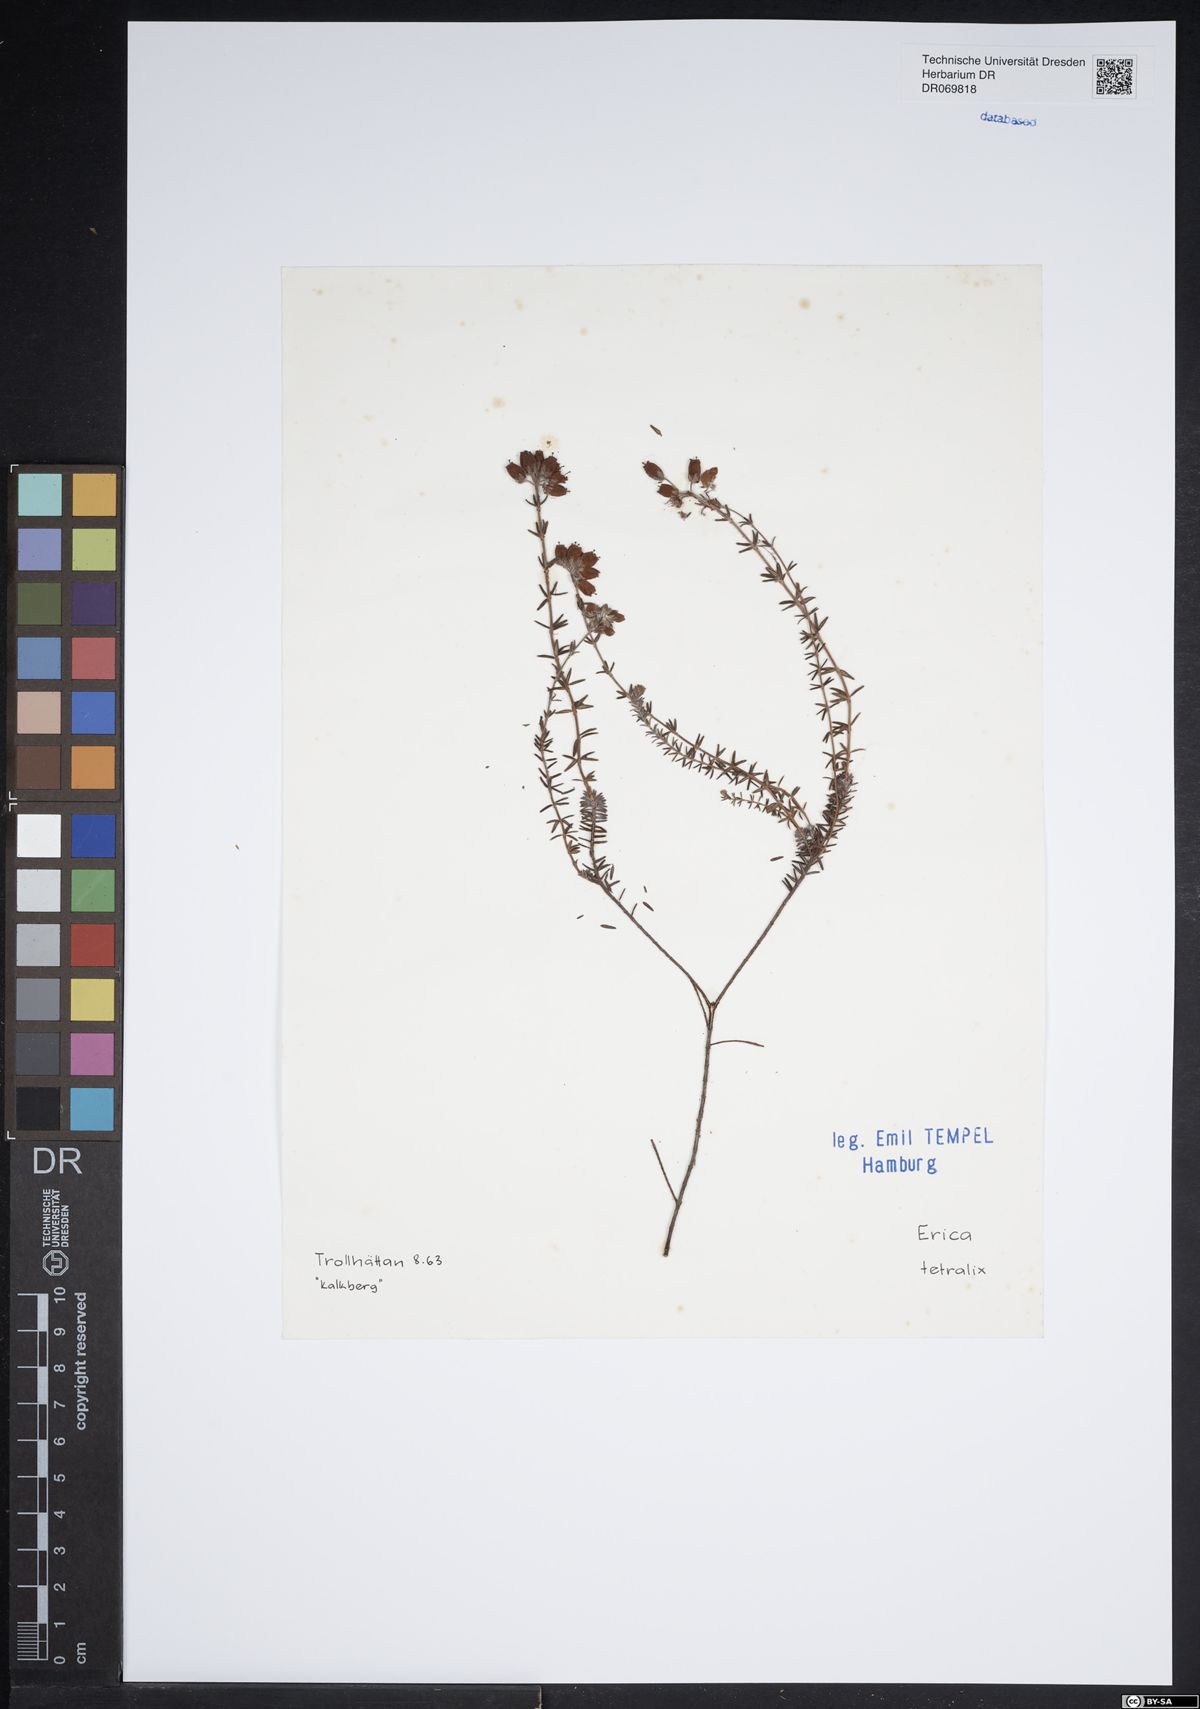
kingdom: Plantae
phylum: Tracheophyta
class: Magnoliopsida
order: Ericales
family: Ericaceae
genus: Erica
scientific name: Erica tetralix
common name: Cross-leaved heath
